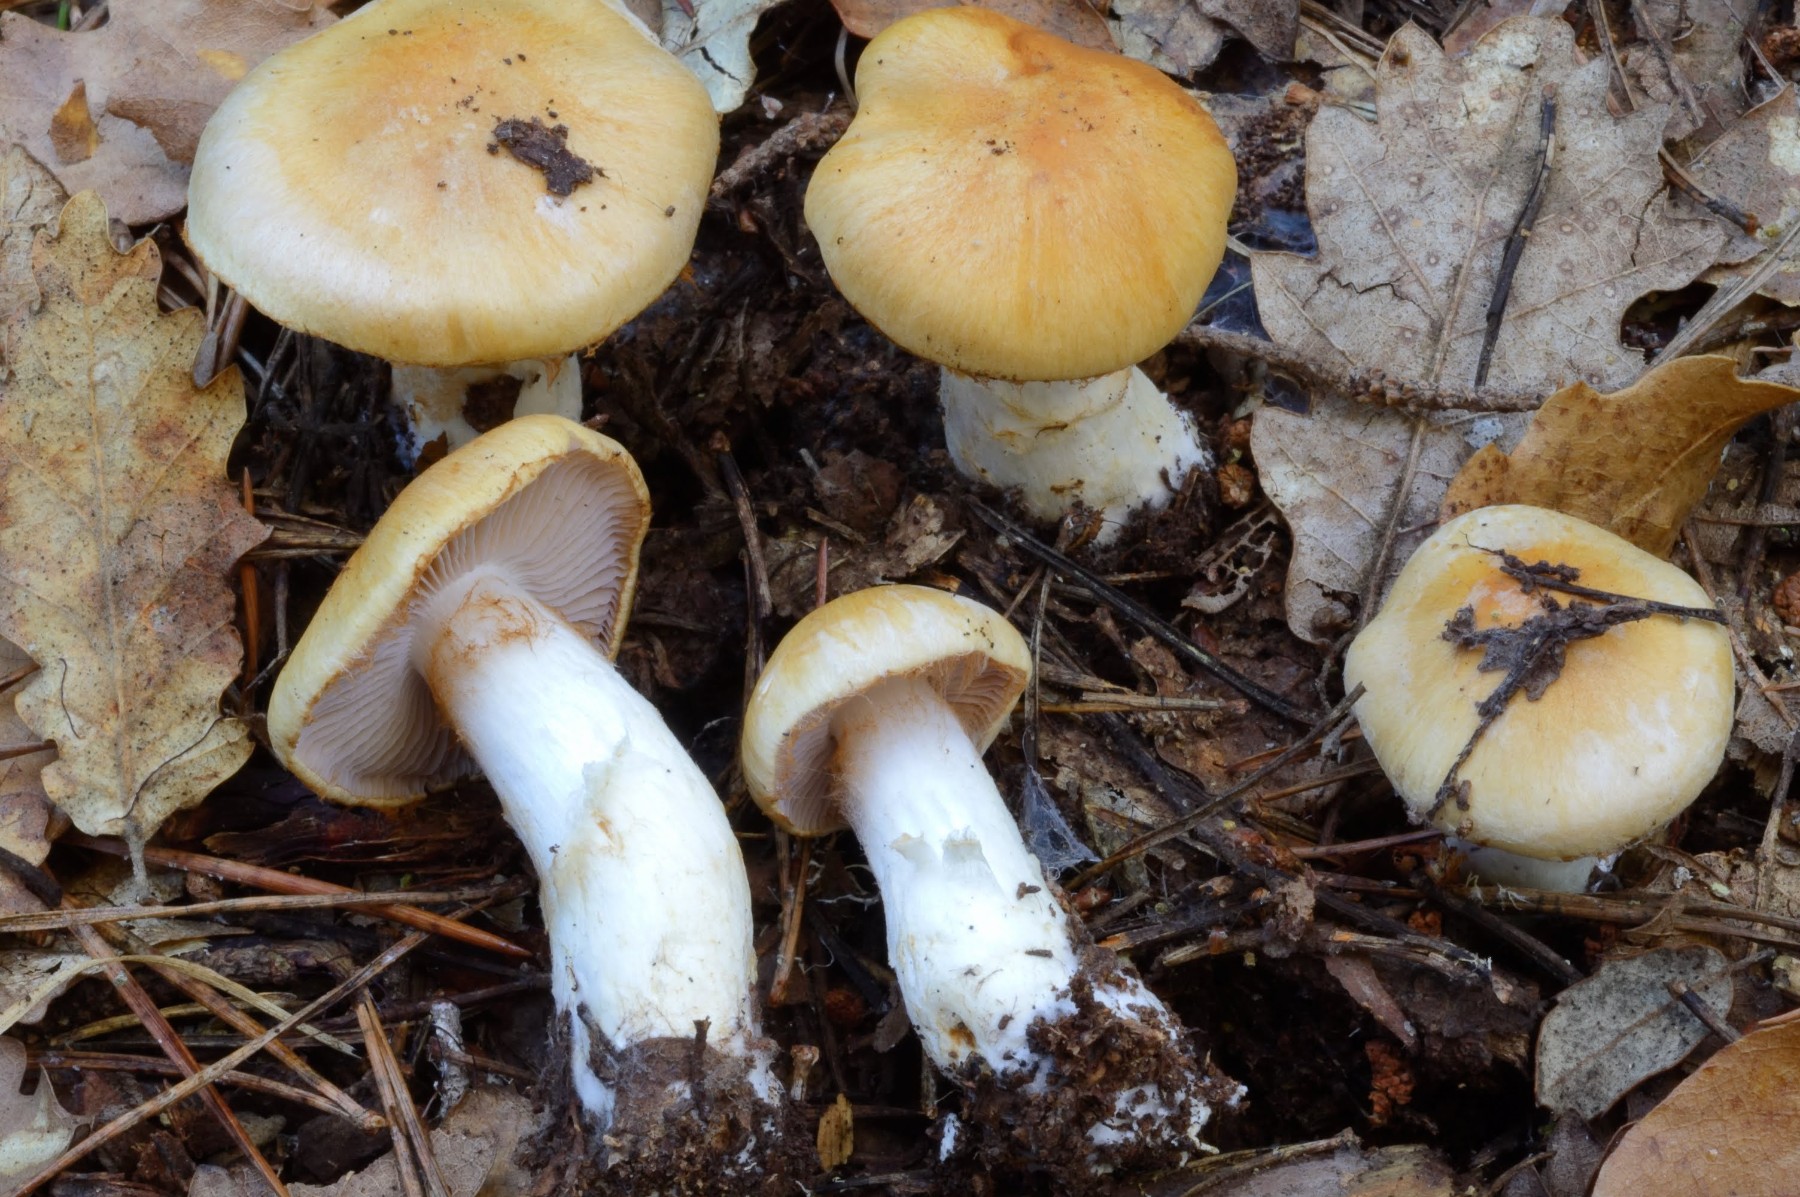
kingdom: Fungi
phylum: Basidiomycota
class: Agaricomycetes
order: Agaricales
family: Cortinariaceae
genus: Phlegmacium
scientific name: Phlegmacium variiforme
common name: løvengs-slørhat
